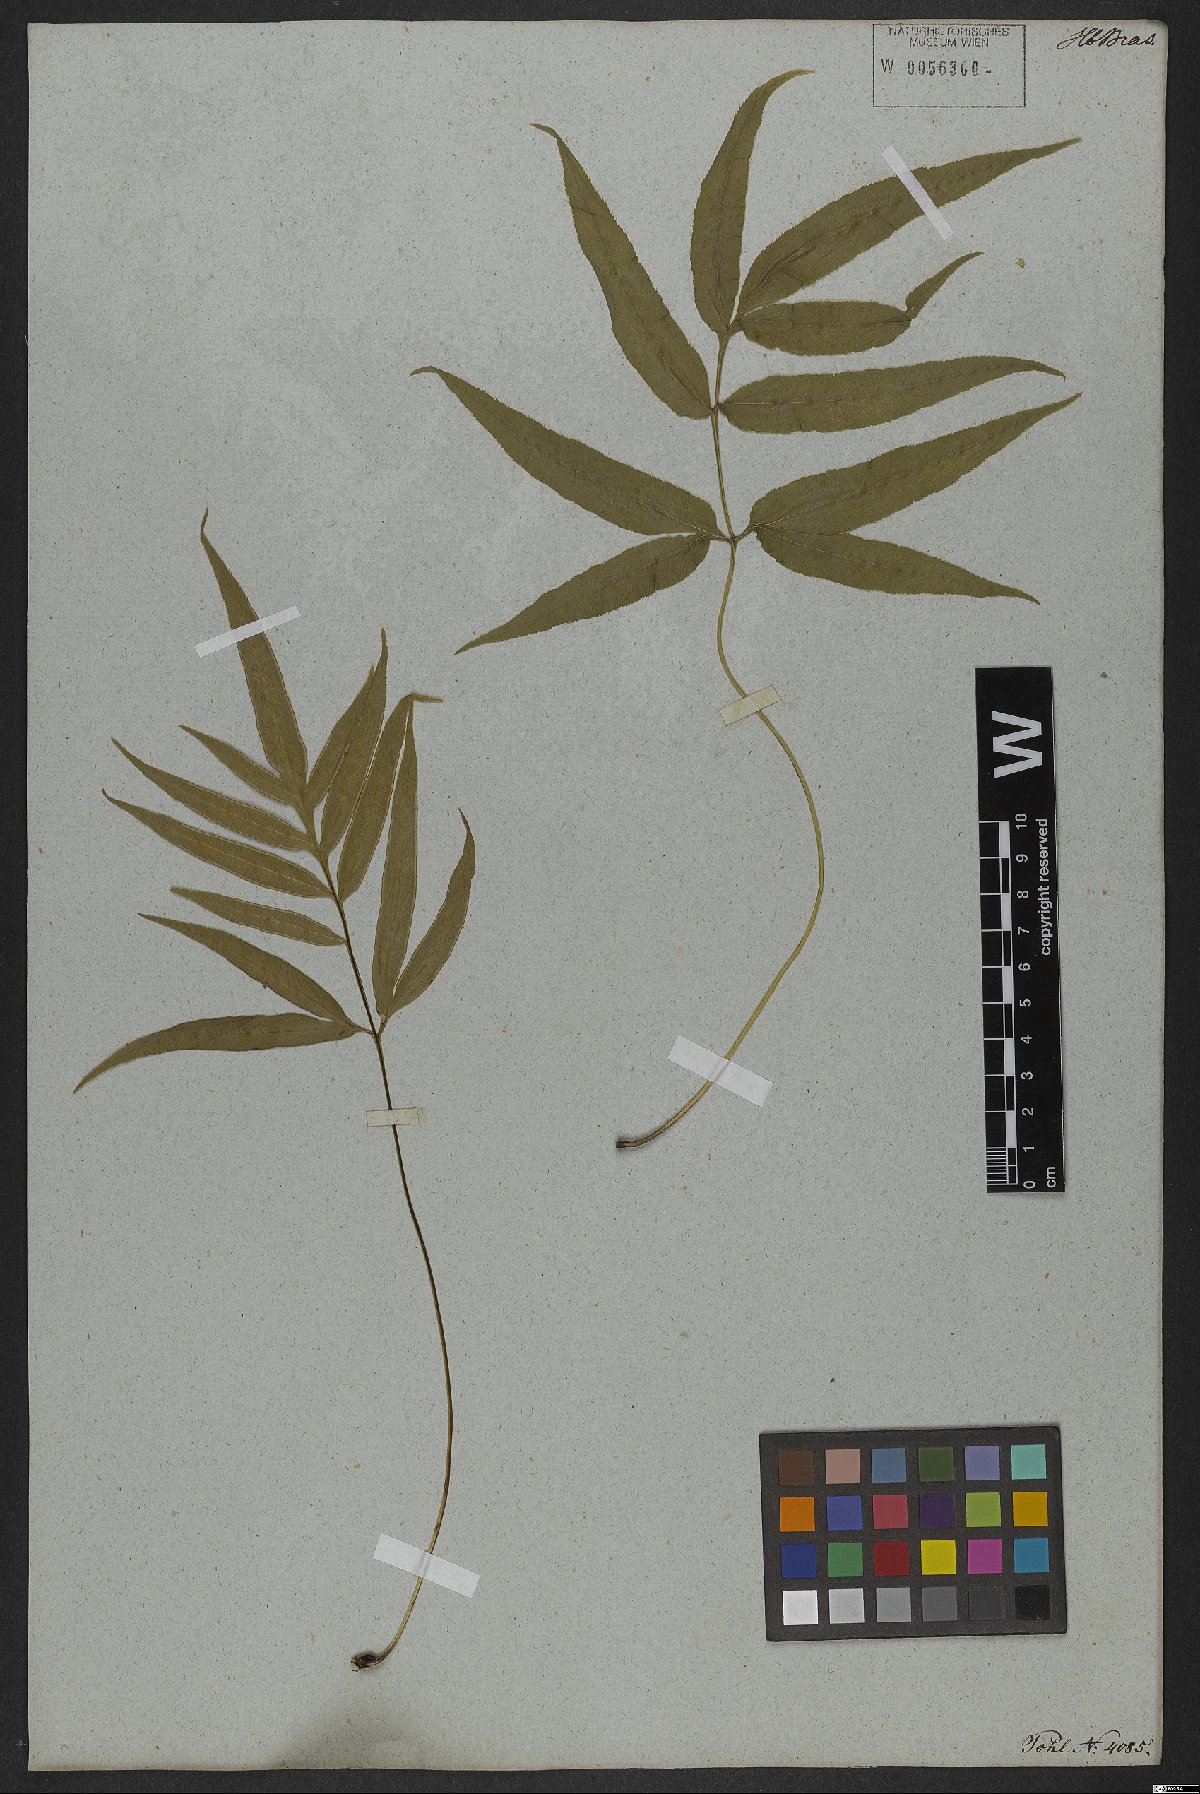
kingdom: Plantae
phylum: Tracheophyta
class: Polypodiopsida
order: Polypodiales
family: Pteridaceae
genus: Pteris
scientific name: Pteris denticulata
